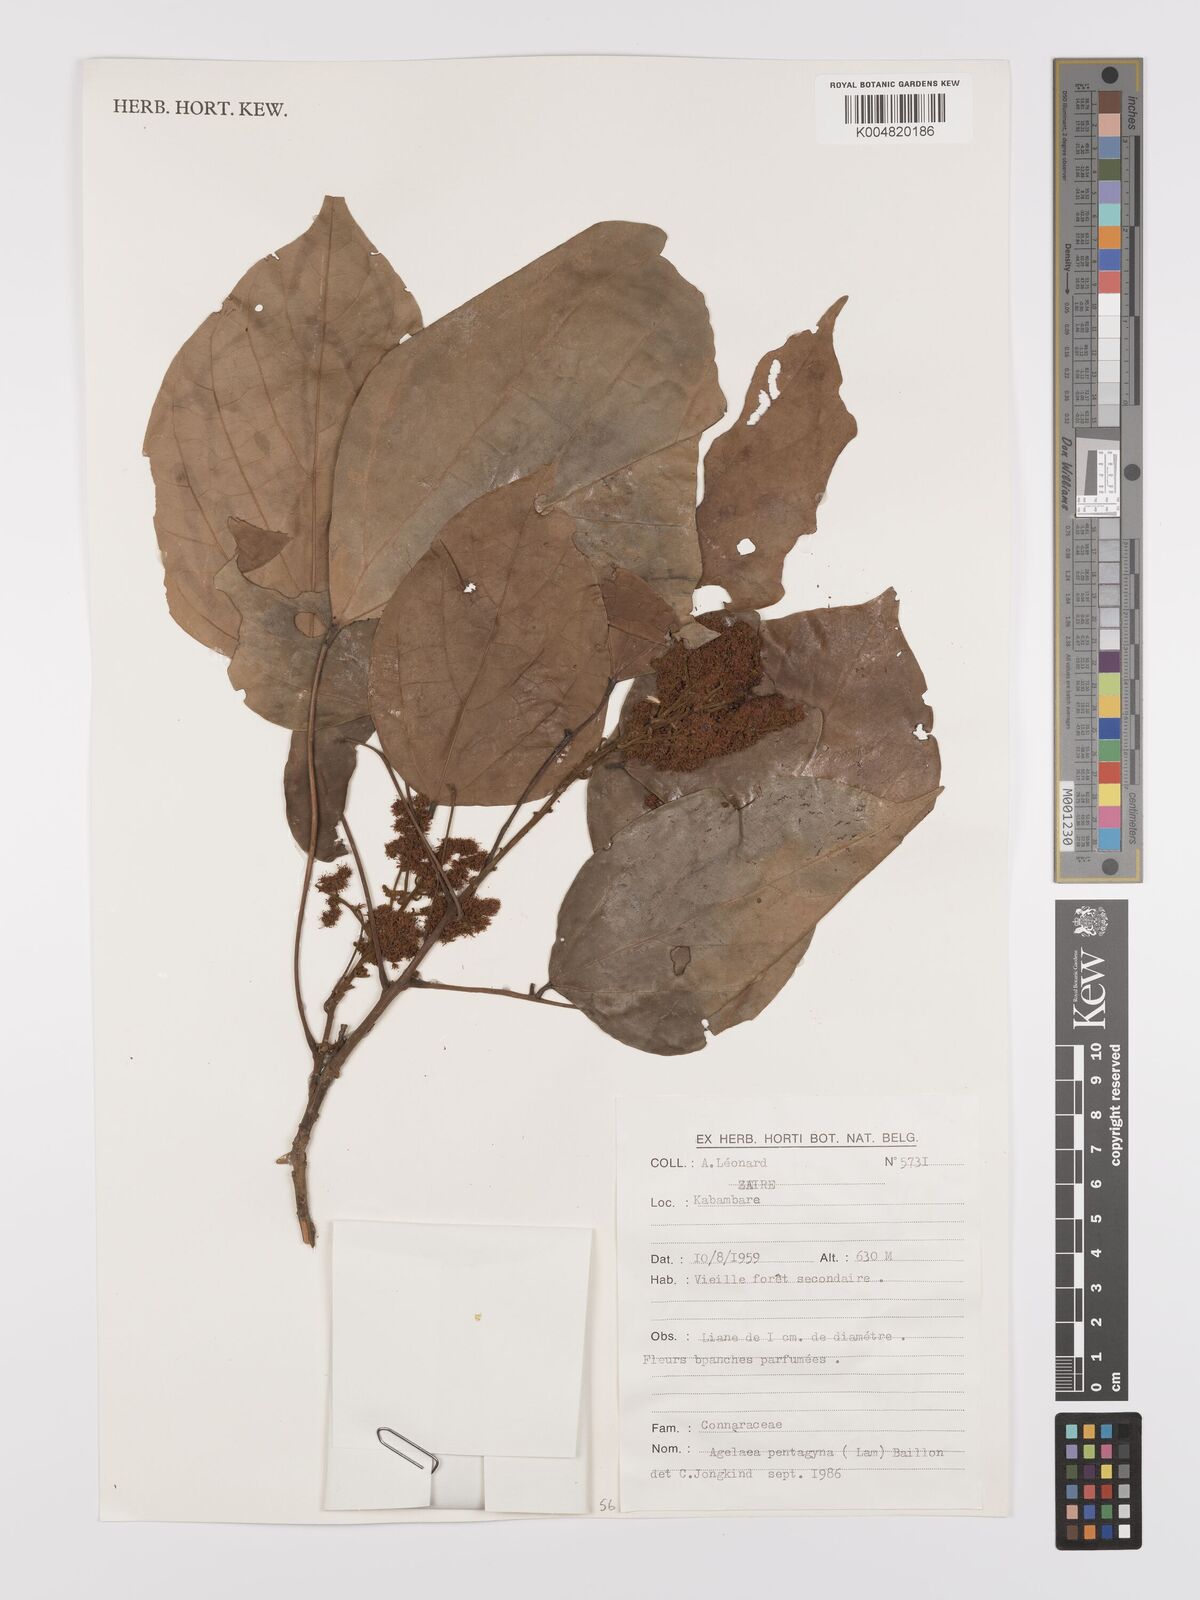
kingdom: Plantae
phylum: Tracheophyta
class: Magnoliopsida
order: Oxalidales
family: Connaraceae
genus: Agelaea
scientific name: Agelaea pentagyna
